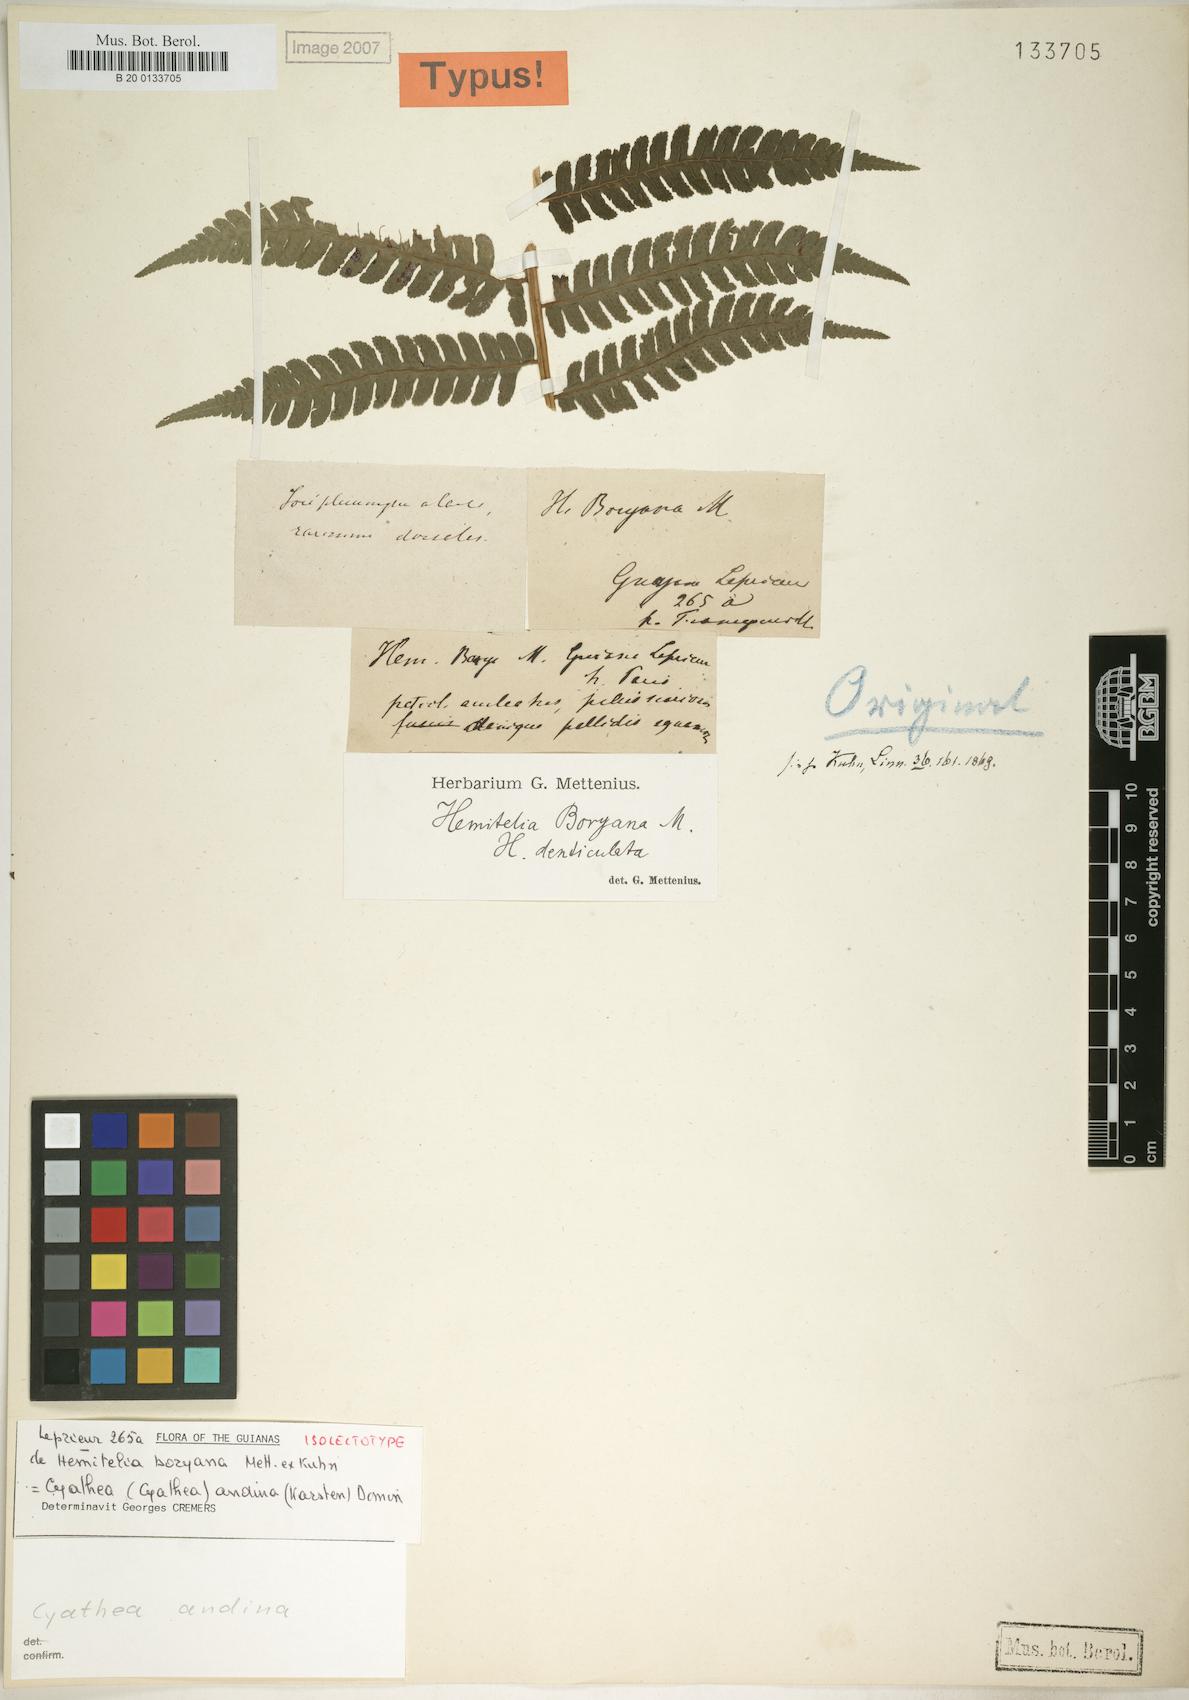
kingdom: Plantae
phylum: Tracheophyta
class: Polypodiopsida
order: Cyatheales
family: Cyatheaceae
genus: Cyathea
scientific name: Cyathea andina
